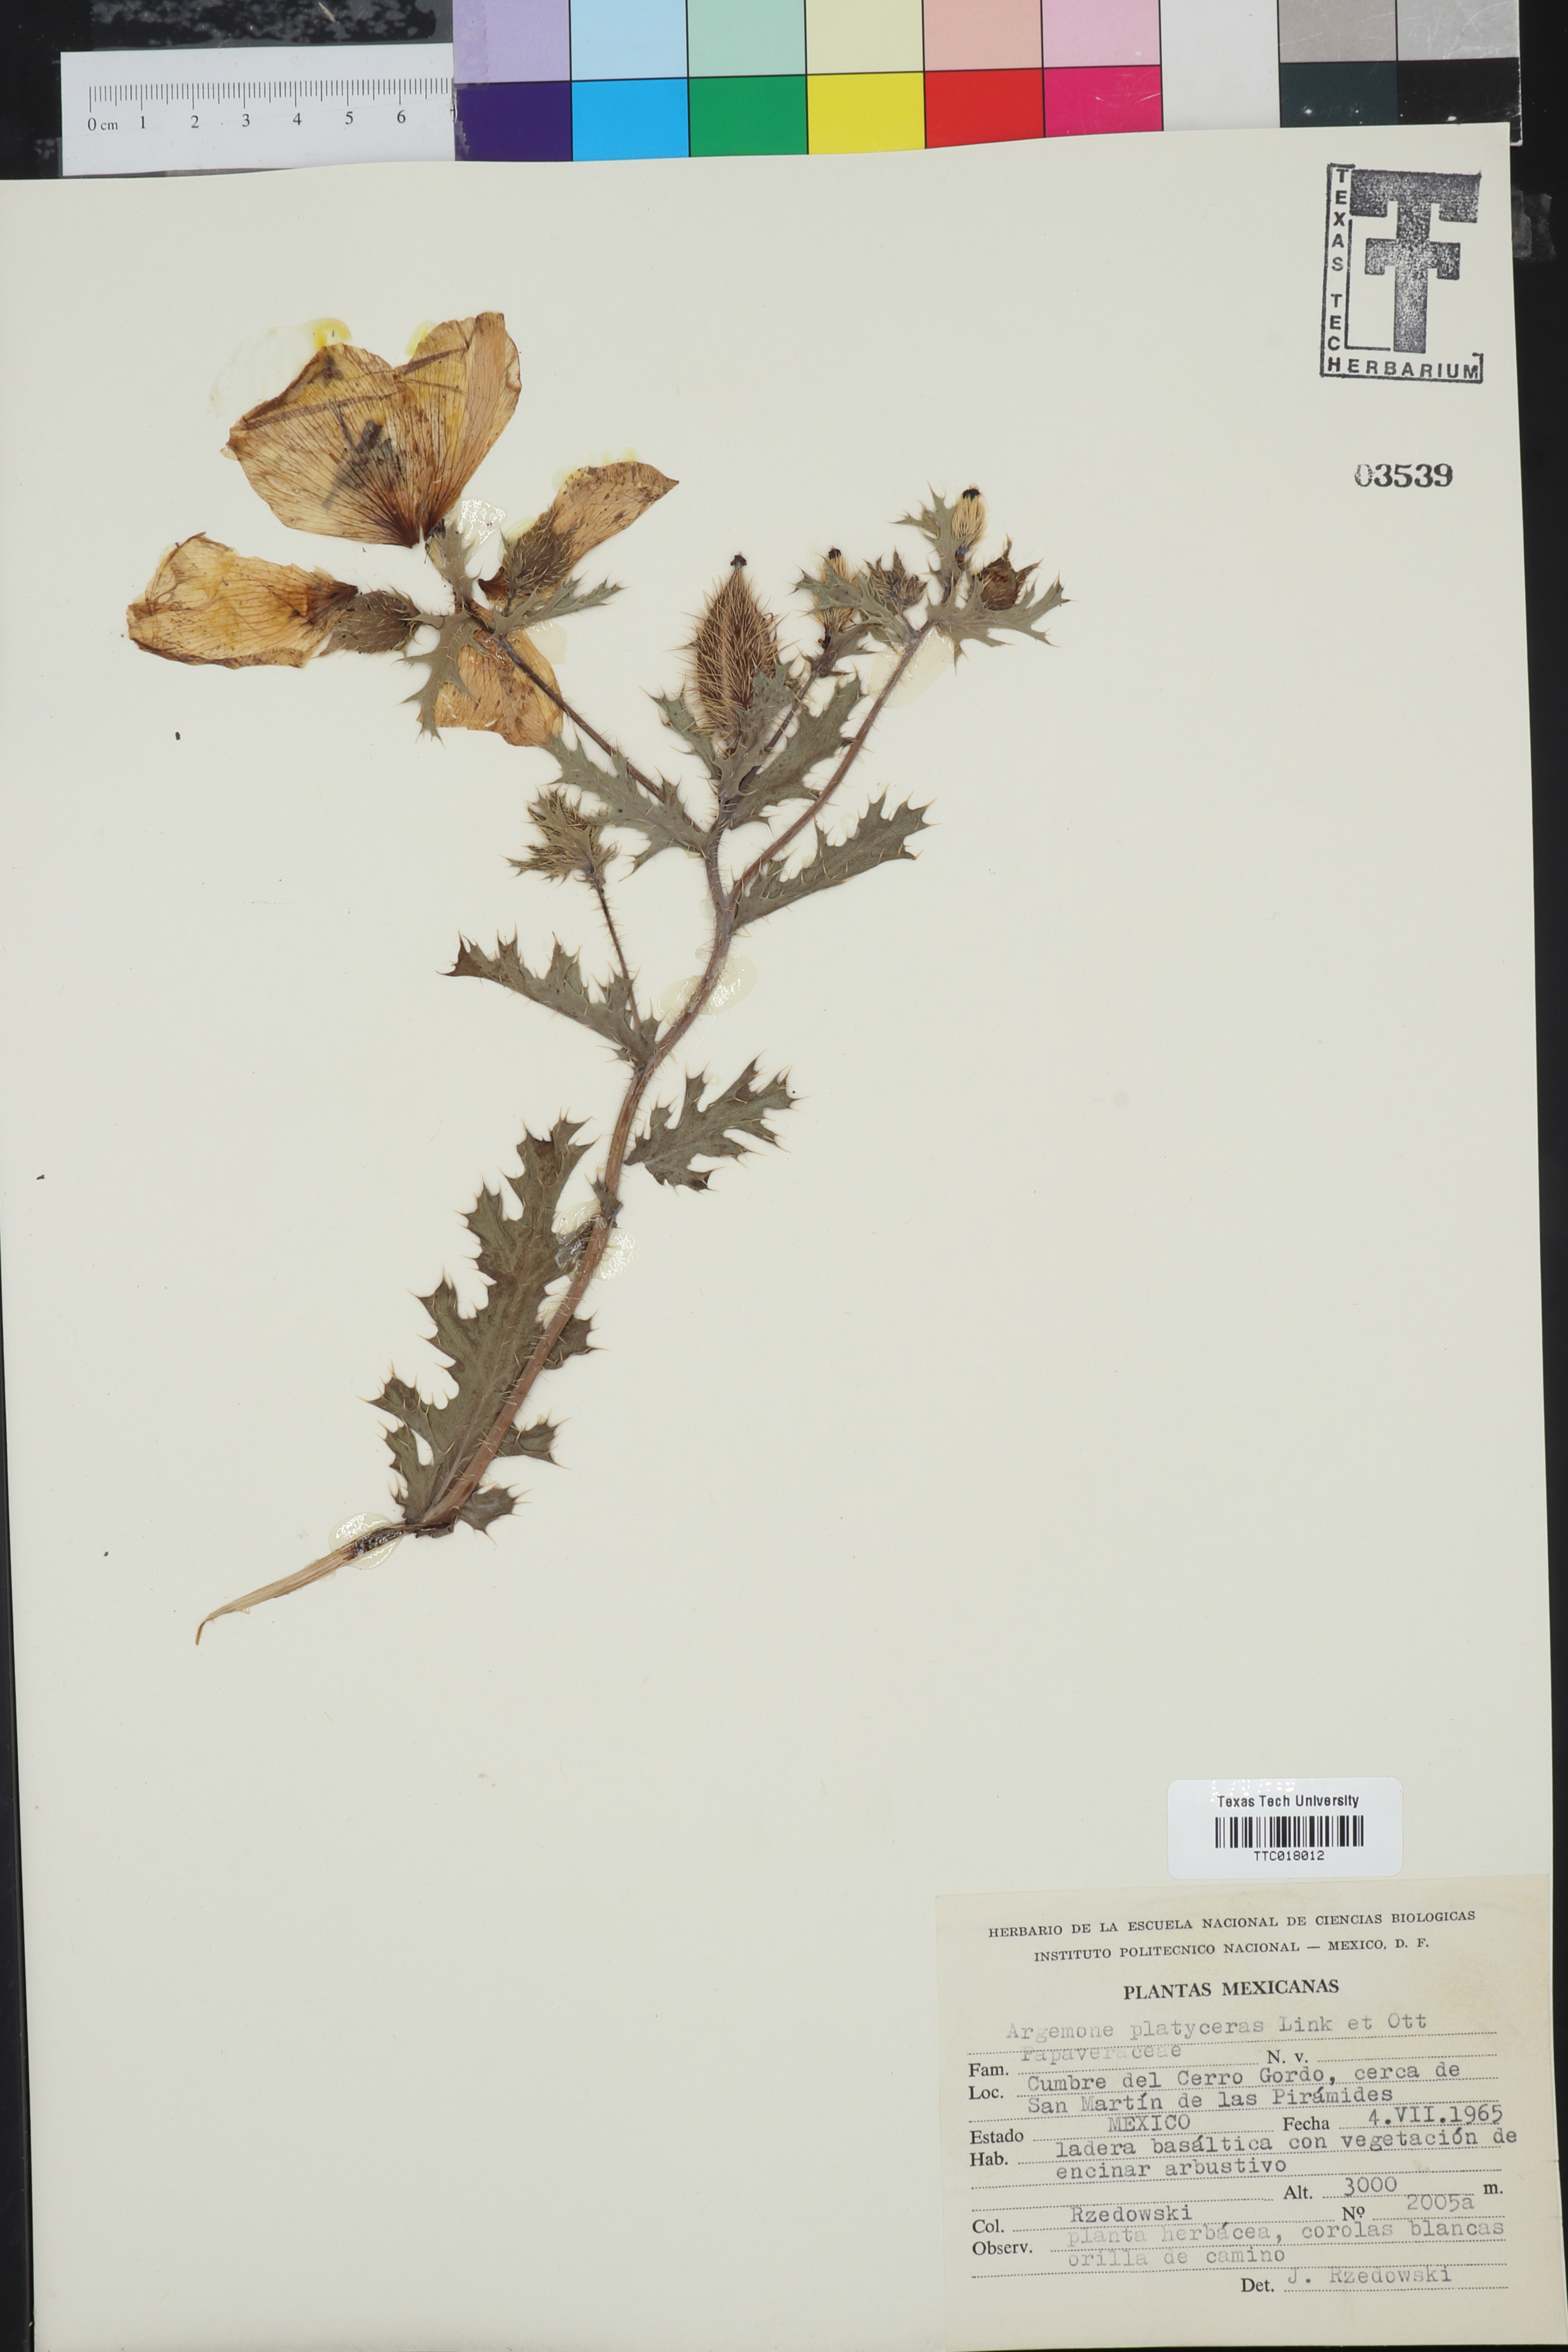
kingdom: Plantae
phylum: Tracheophyta
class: Magnoliopsida
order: Ranunculales
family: Papaveraceae
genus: Argemone
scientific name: Argemone platyceras
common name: Crested-poppy
